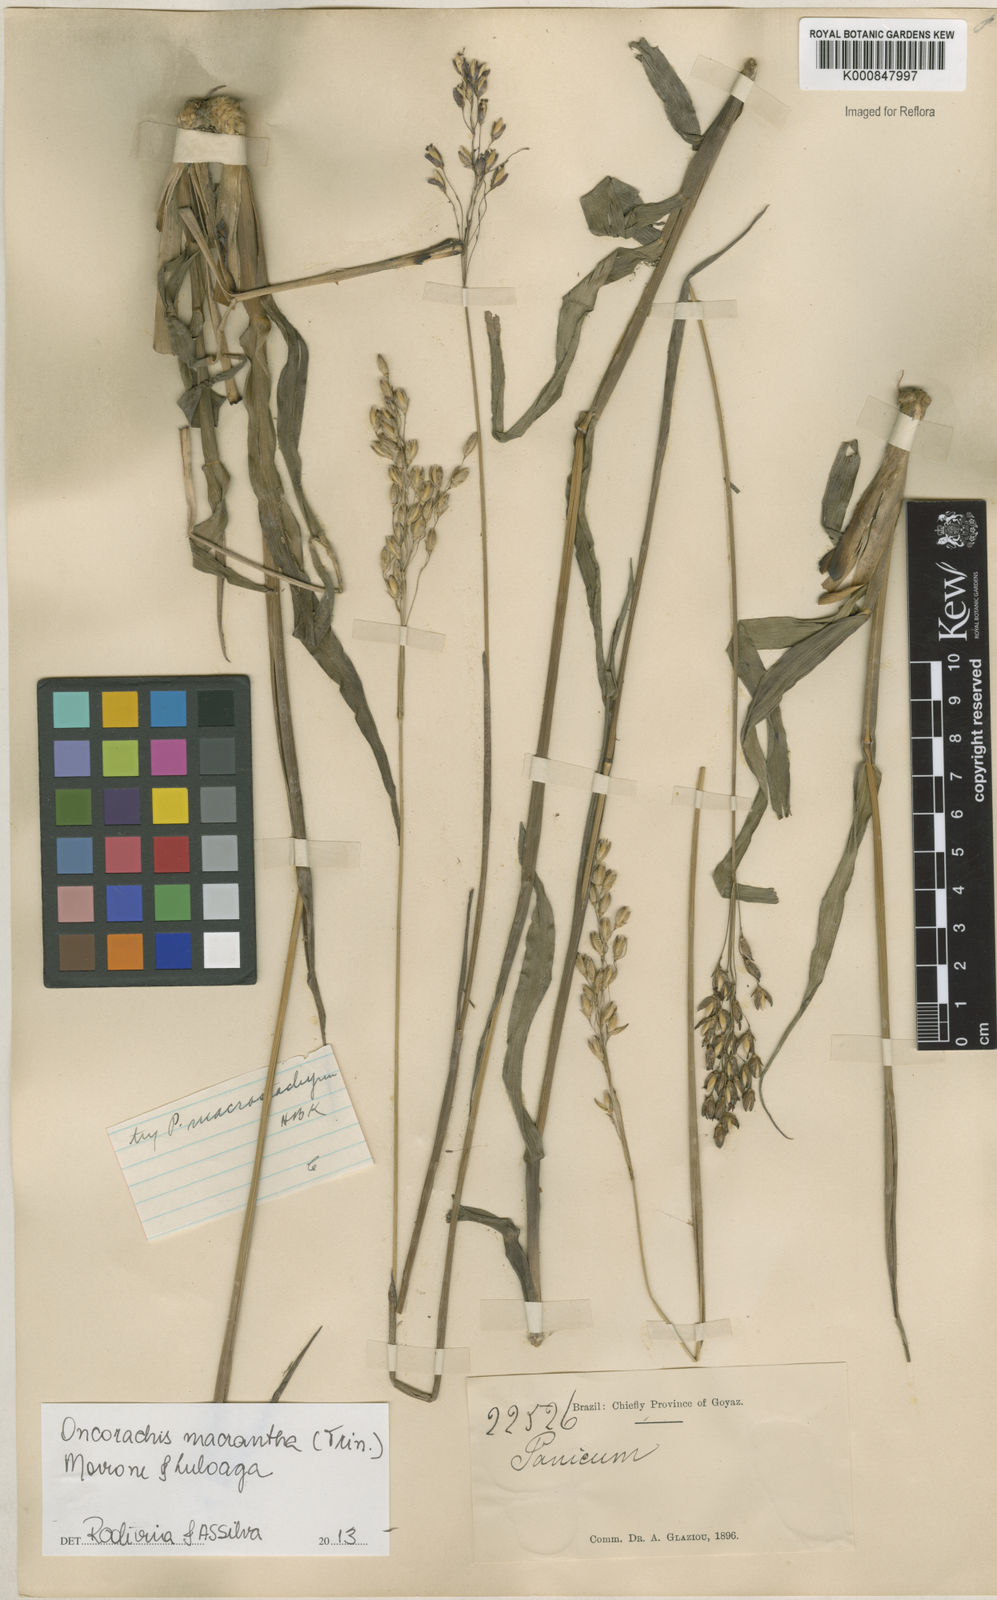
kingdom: Plantae
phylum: Tracheophyta
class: Liliopsida
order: Poales
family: Poaceae
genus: Oncorachis
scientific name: Oncorachis macrantha
